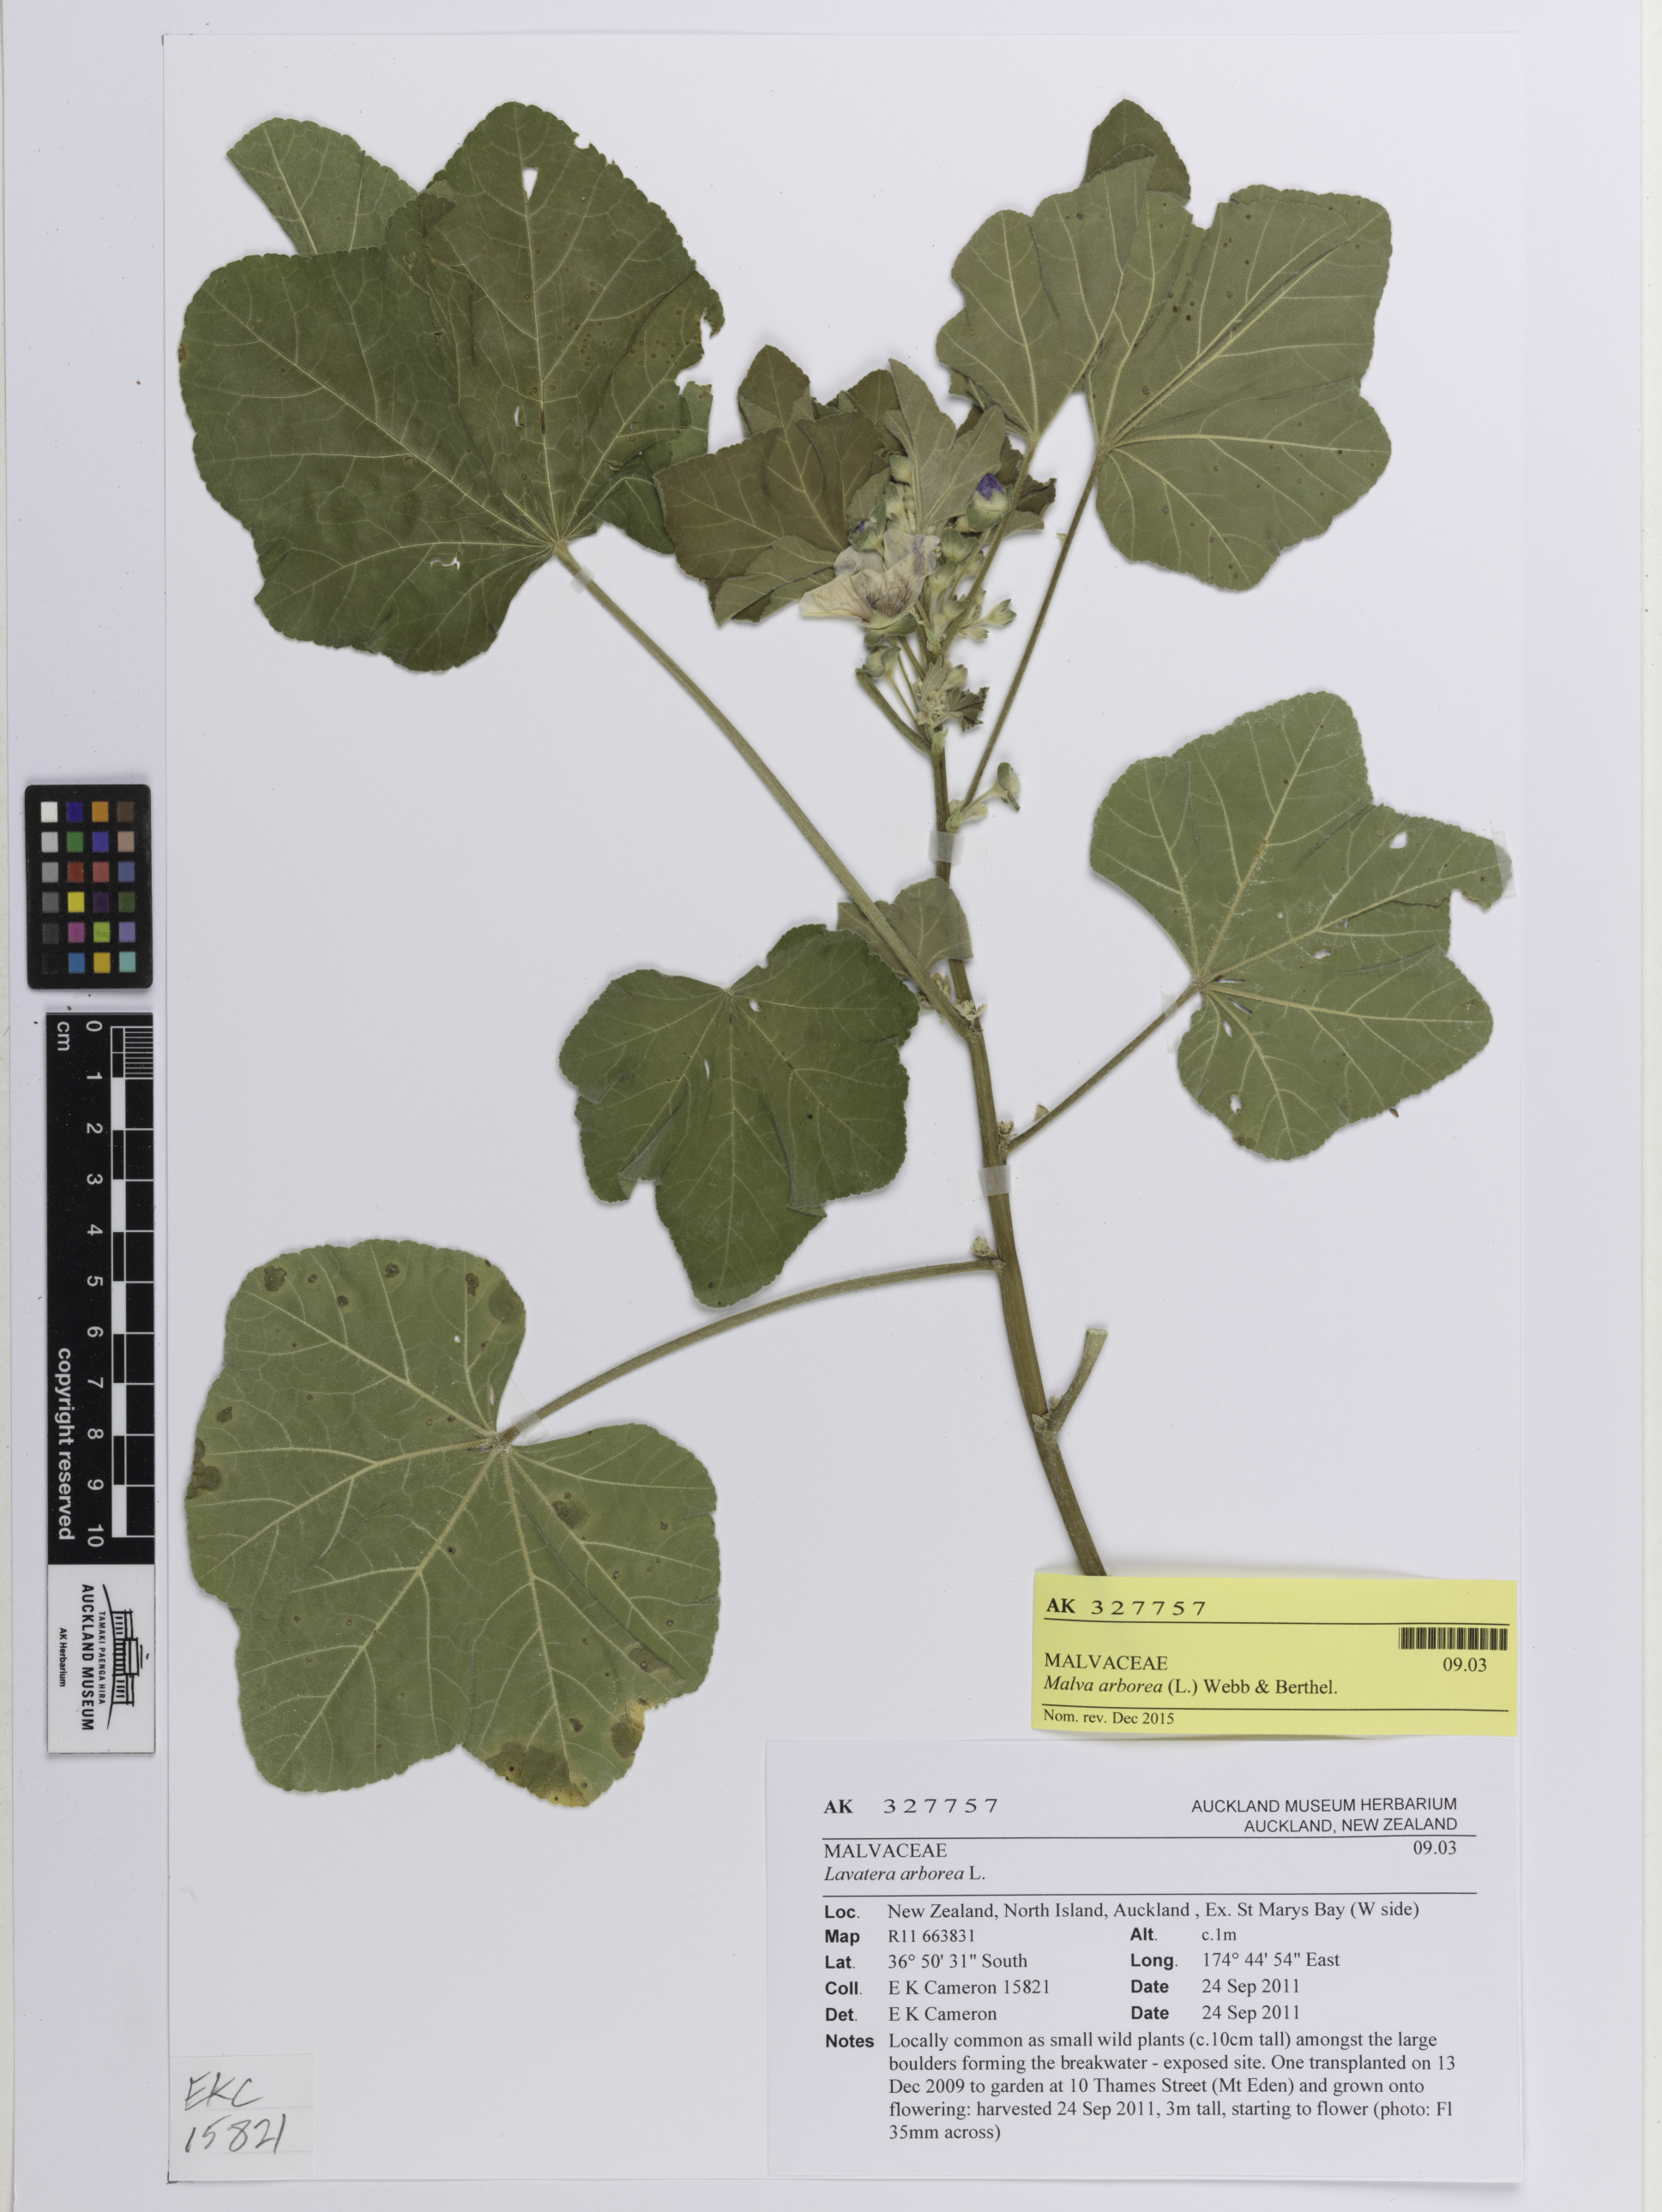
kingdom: Plantae
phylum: Tracheophyta
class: Magnoliopsida
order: Malvales
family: Malvaceae
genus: Malva
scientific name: Malva arborea
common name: Tree mallow
